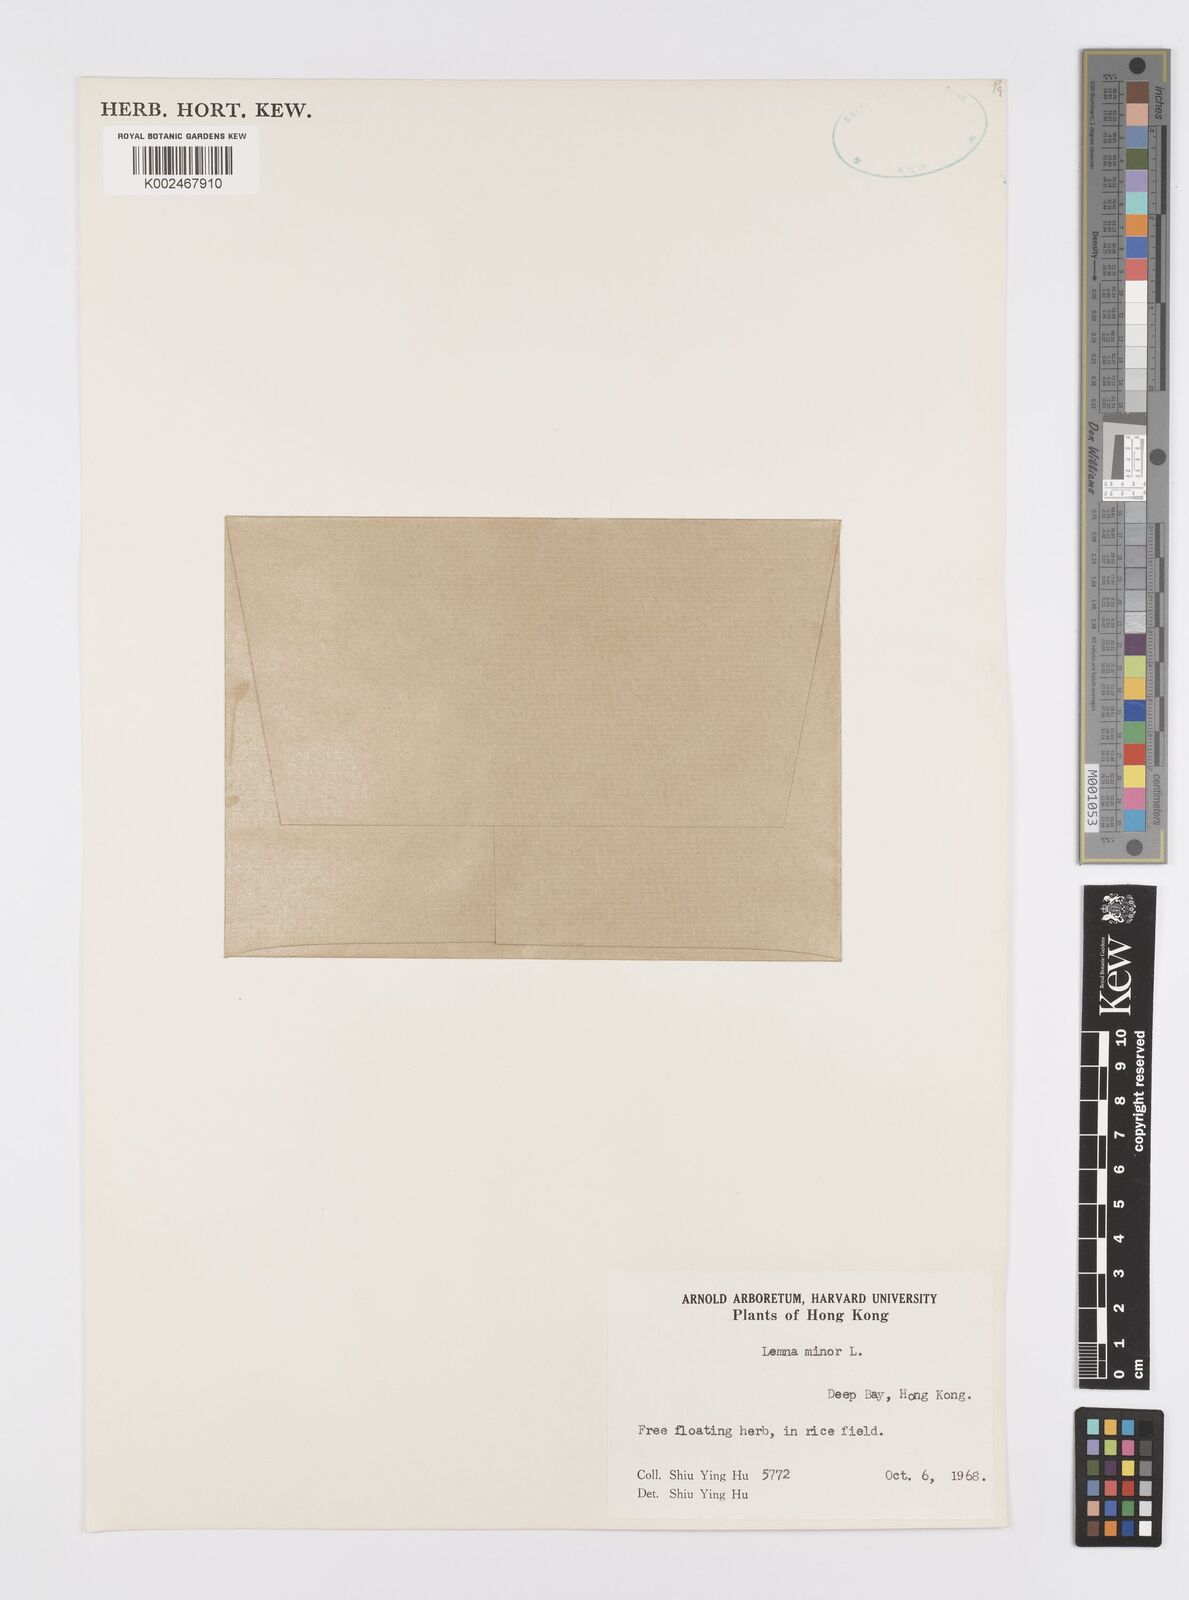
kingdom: Plantae
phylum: Tracheophyta
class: Liliopsida
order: Alismatales
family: Araceae
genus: Lemna
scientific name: Lemna minor
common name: Common duckweed
